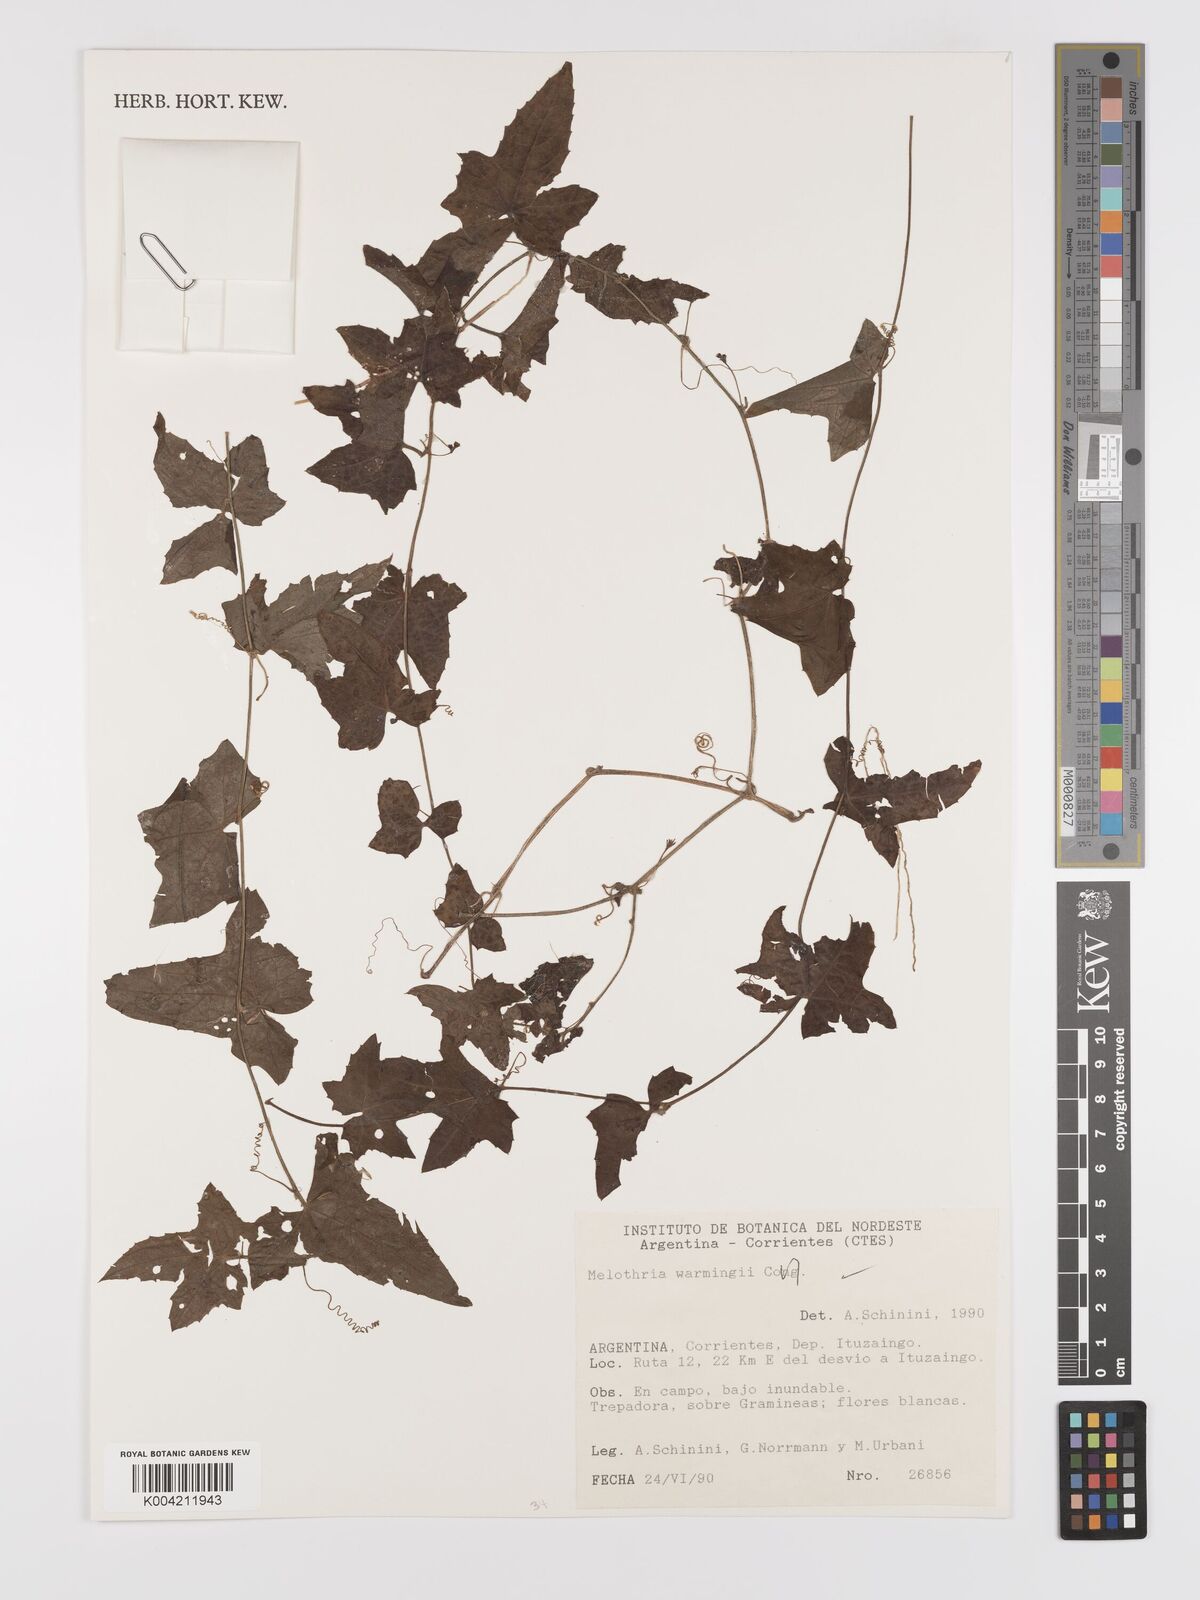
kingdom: Plantae
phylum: Tracheophyta
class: Magnoliopsida
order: Cucurbitales
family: Cucurbitaceae
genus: Melothria
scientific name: Melothria warmingii
